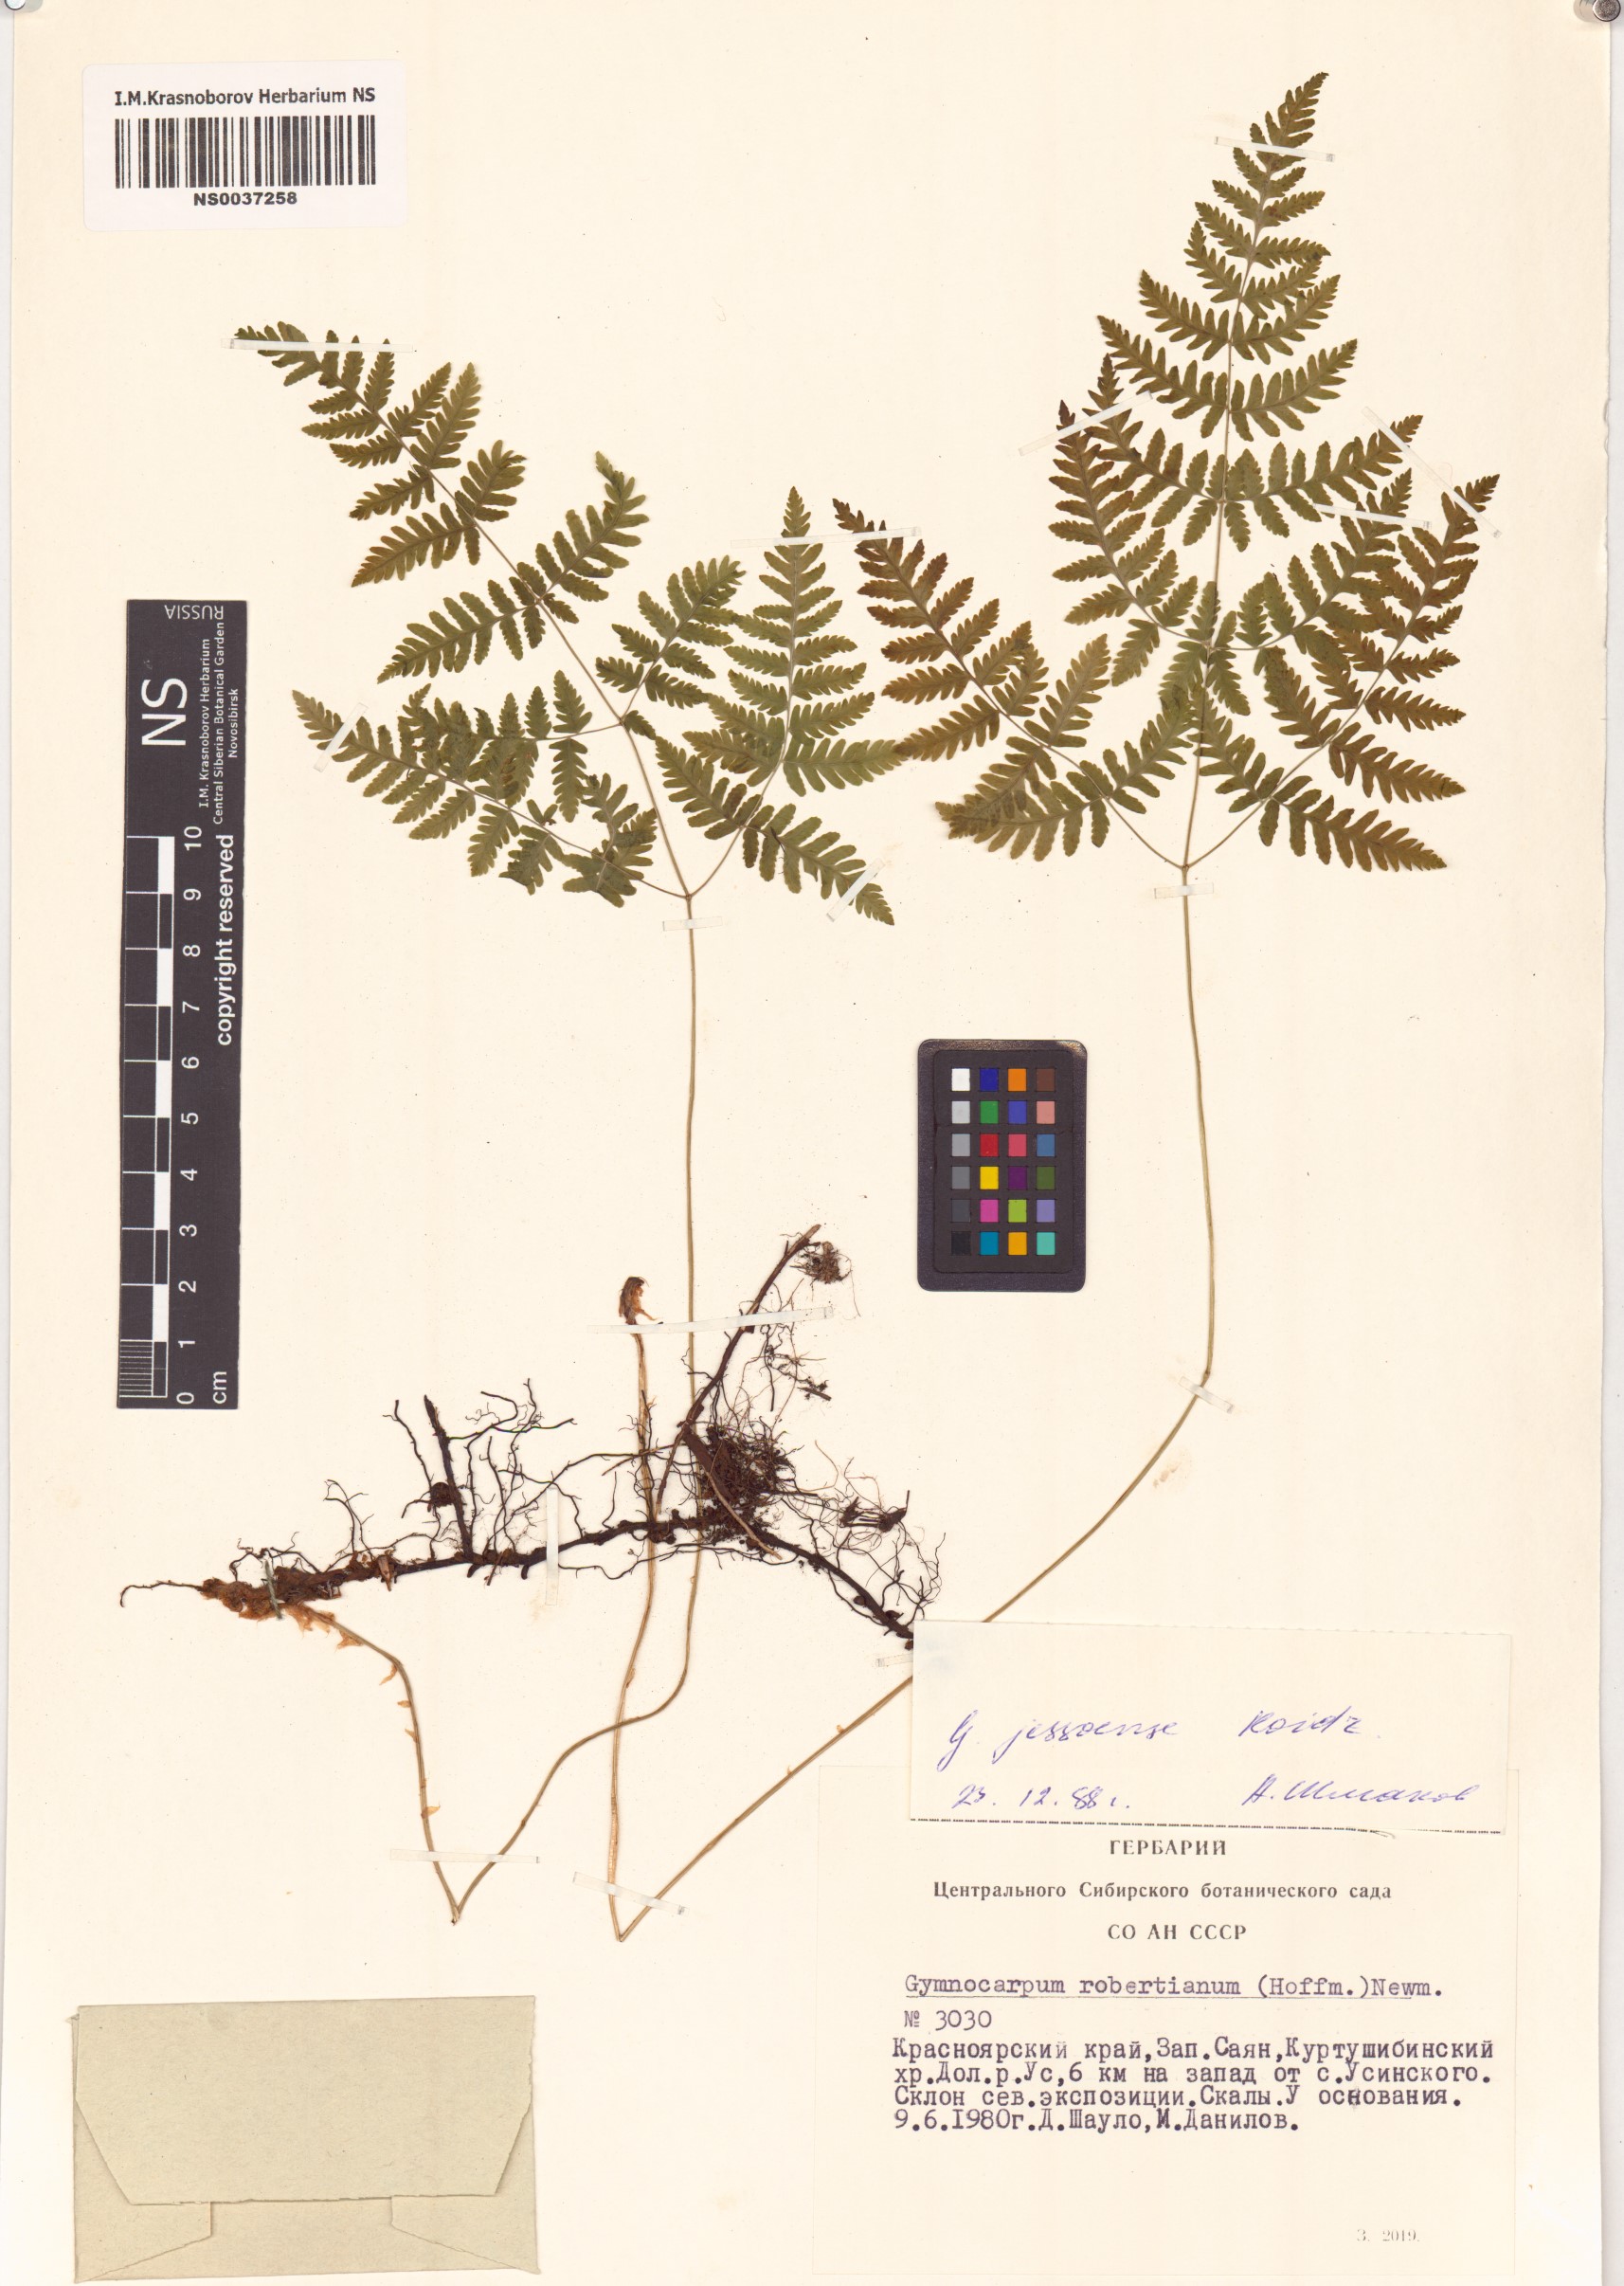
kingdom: Plantae
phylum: Tracheophyta
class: Polypodiopsida
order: Polypodiales
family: Cystopteridaceae
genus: Gymnocarpium
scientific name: Gymnocarpium jessoense
